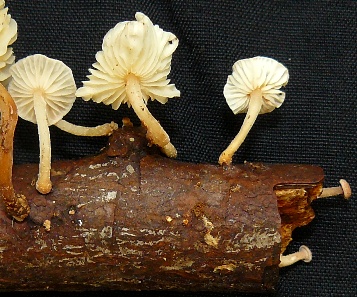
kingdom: Fungi
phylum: Basidiomycota
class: Agaricomycetes
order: Agaricales
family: Omphalotaceae
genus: Collybiopsis
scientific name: Collybiopsis ramealis
